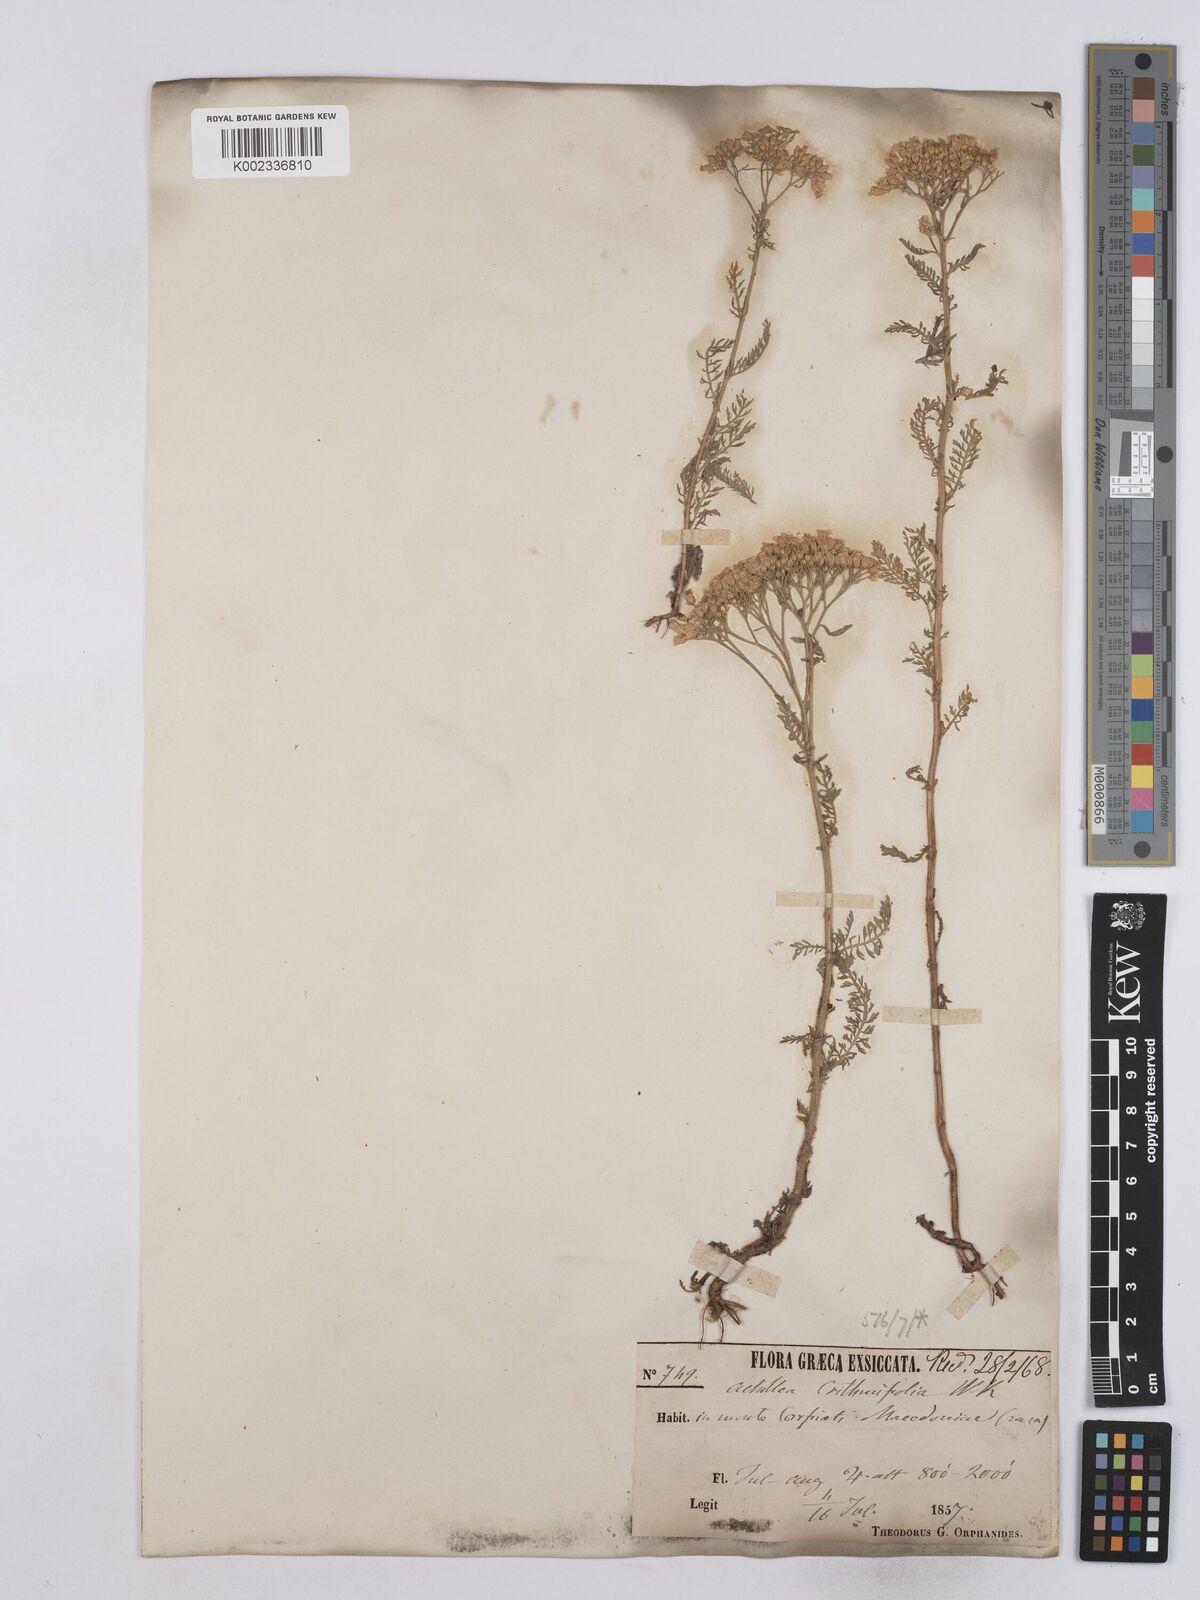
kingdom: Plantae
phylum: Tracheophyta
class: Magnoliopsida
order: Asterales
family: Asteraceae
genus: Achillea
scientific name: Achillea crithmifolia
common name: Yarrow
